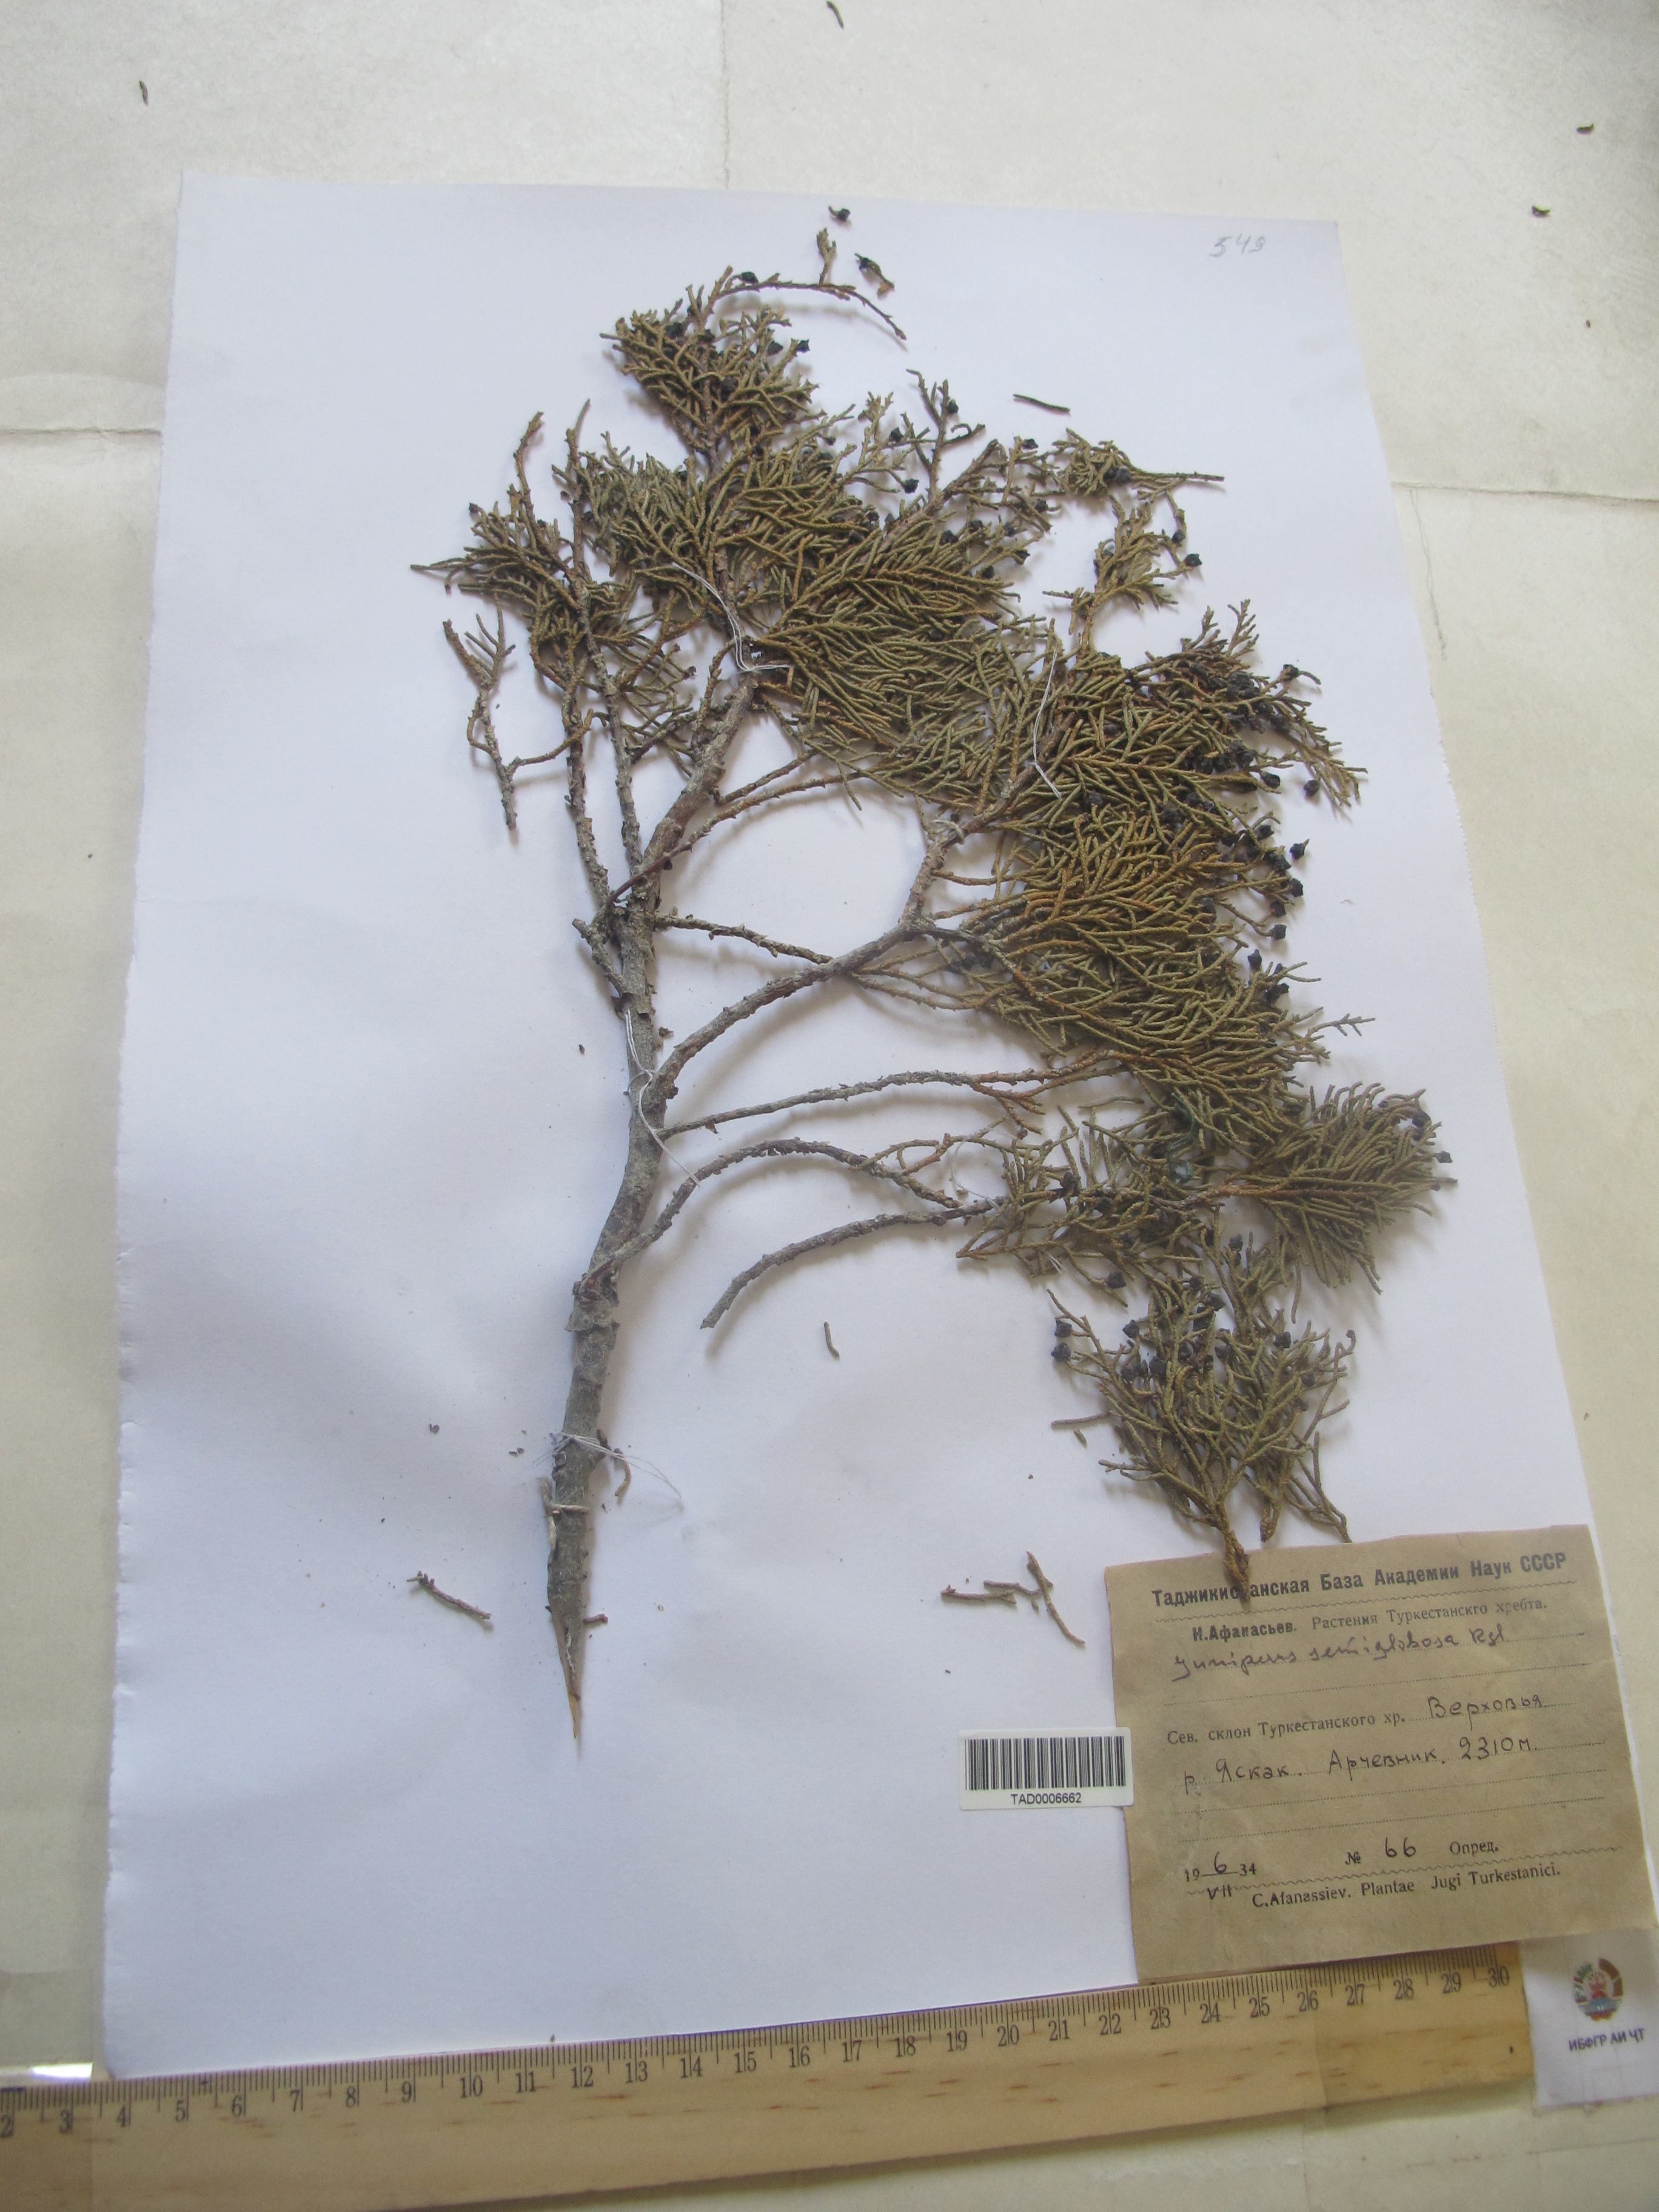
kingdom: Plantae
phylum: Tracheophyta
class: Pinopsida
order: Pinales
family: Cupressaceae
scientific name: Cupressaceae
